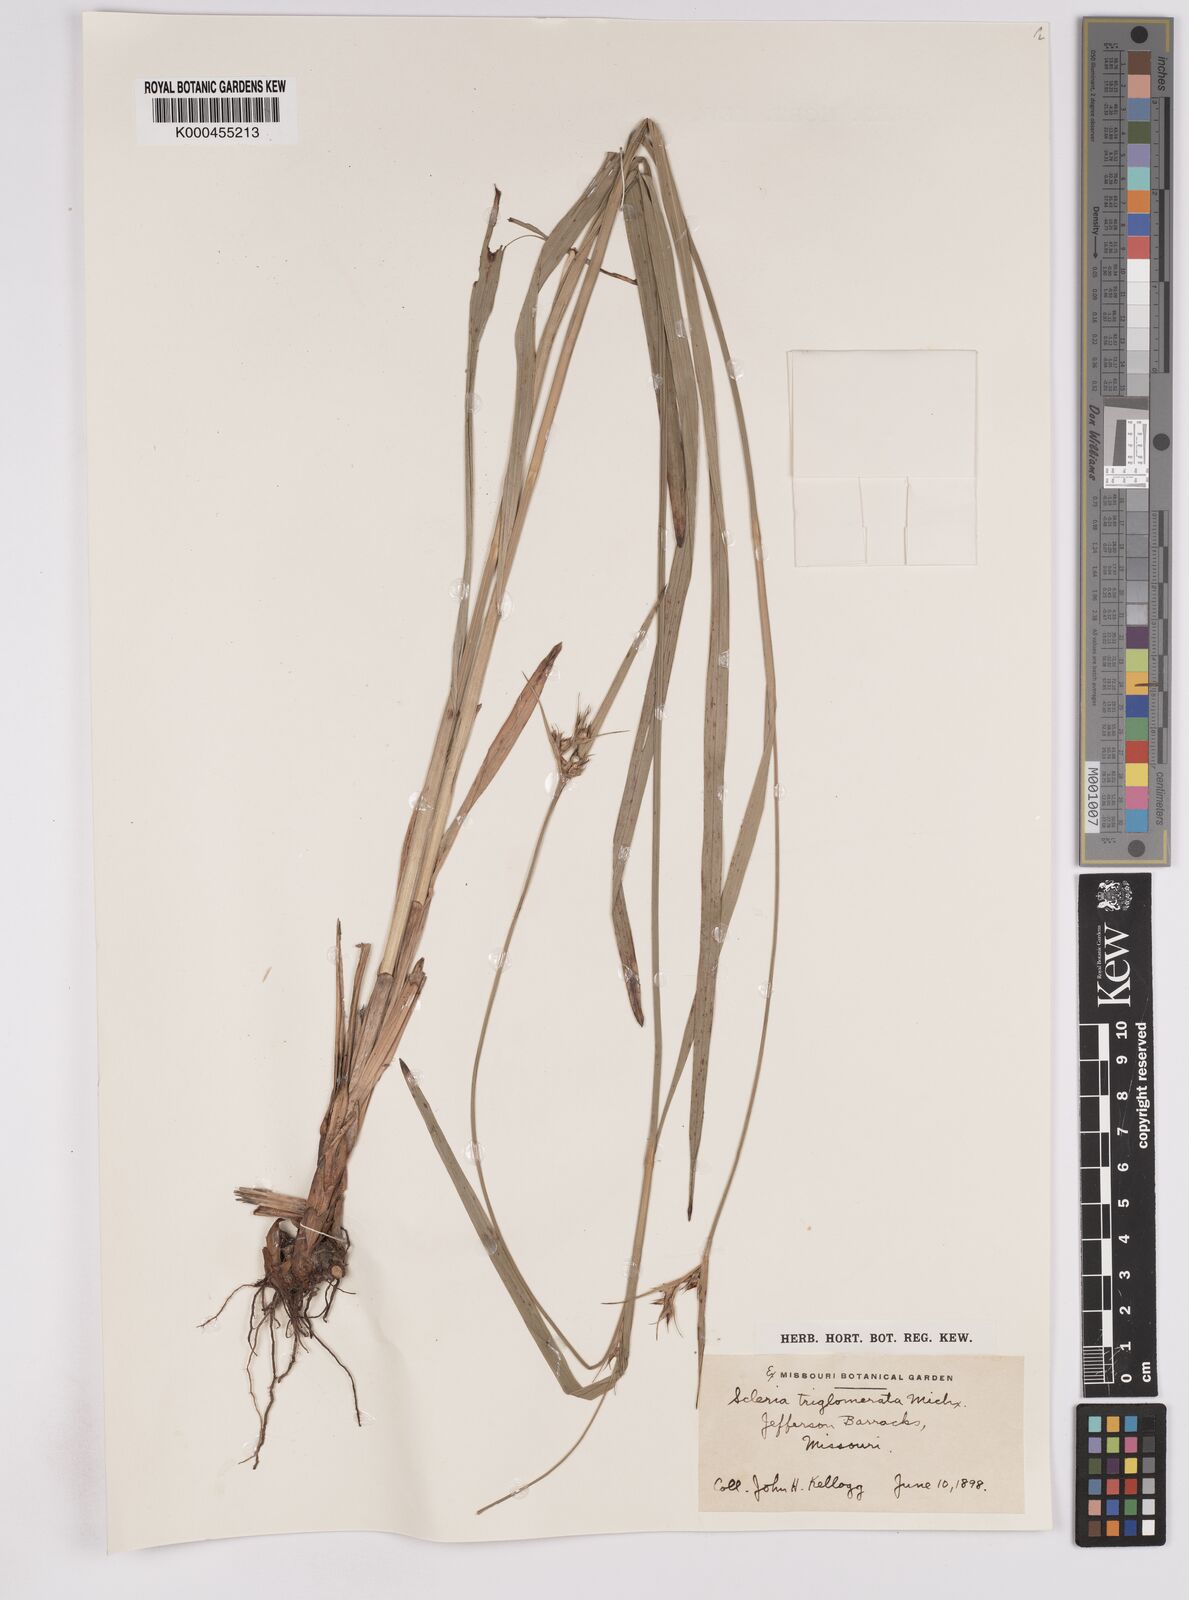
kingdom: Plantae
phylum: Tracheophyta
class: Liliopsida
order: Poales
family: Cyperaceae
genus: Scleria
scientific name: Scleria triglomerata
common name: Whip nutrush
